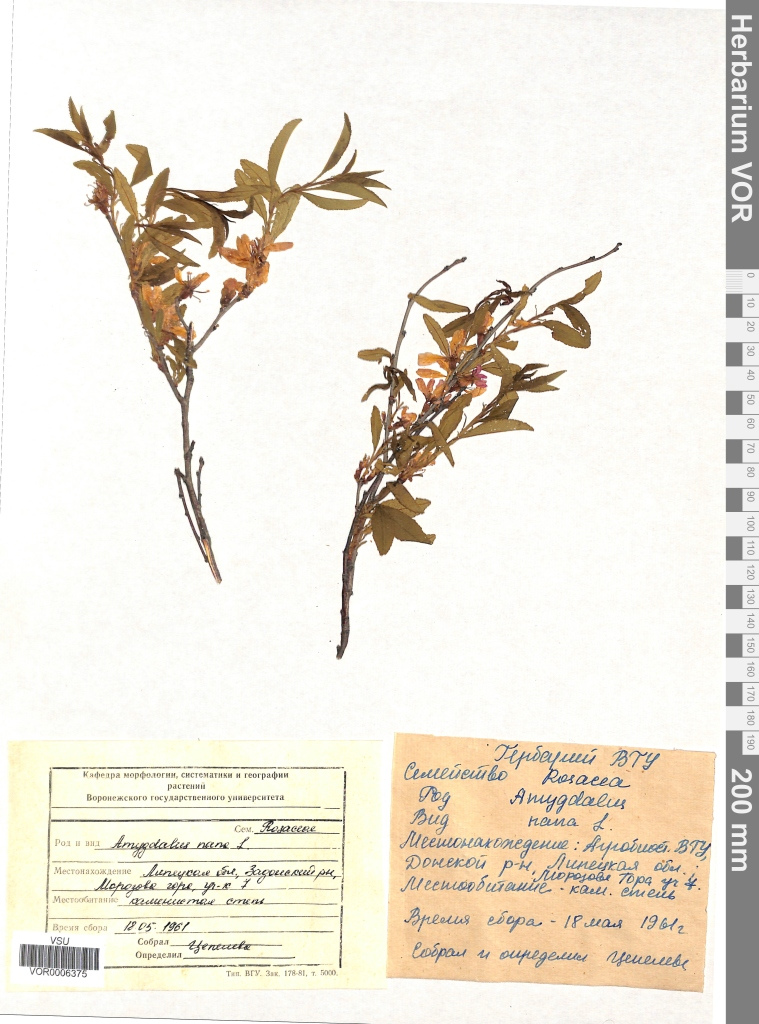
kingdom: Plantae
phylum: Tracheophyta
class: Magnoliopsida
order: Rosales
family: Rosaceae
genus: Prunus
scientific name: Prunus tenella
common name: Dwarf russian almond
